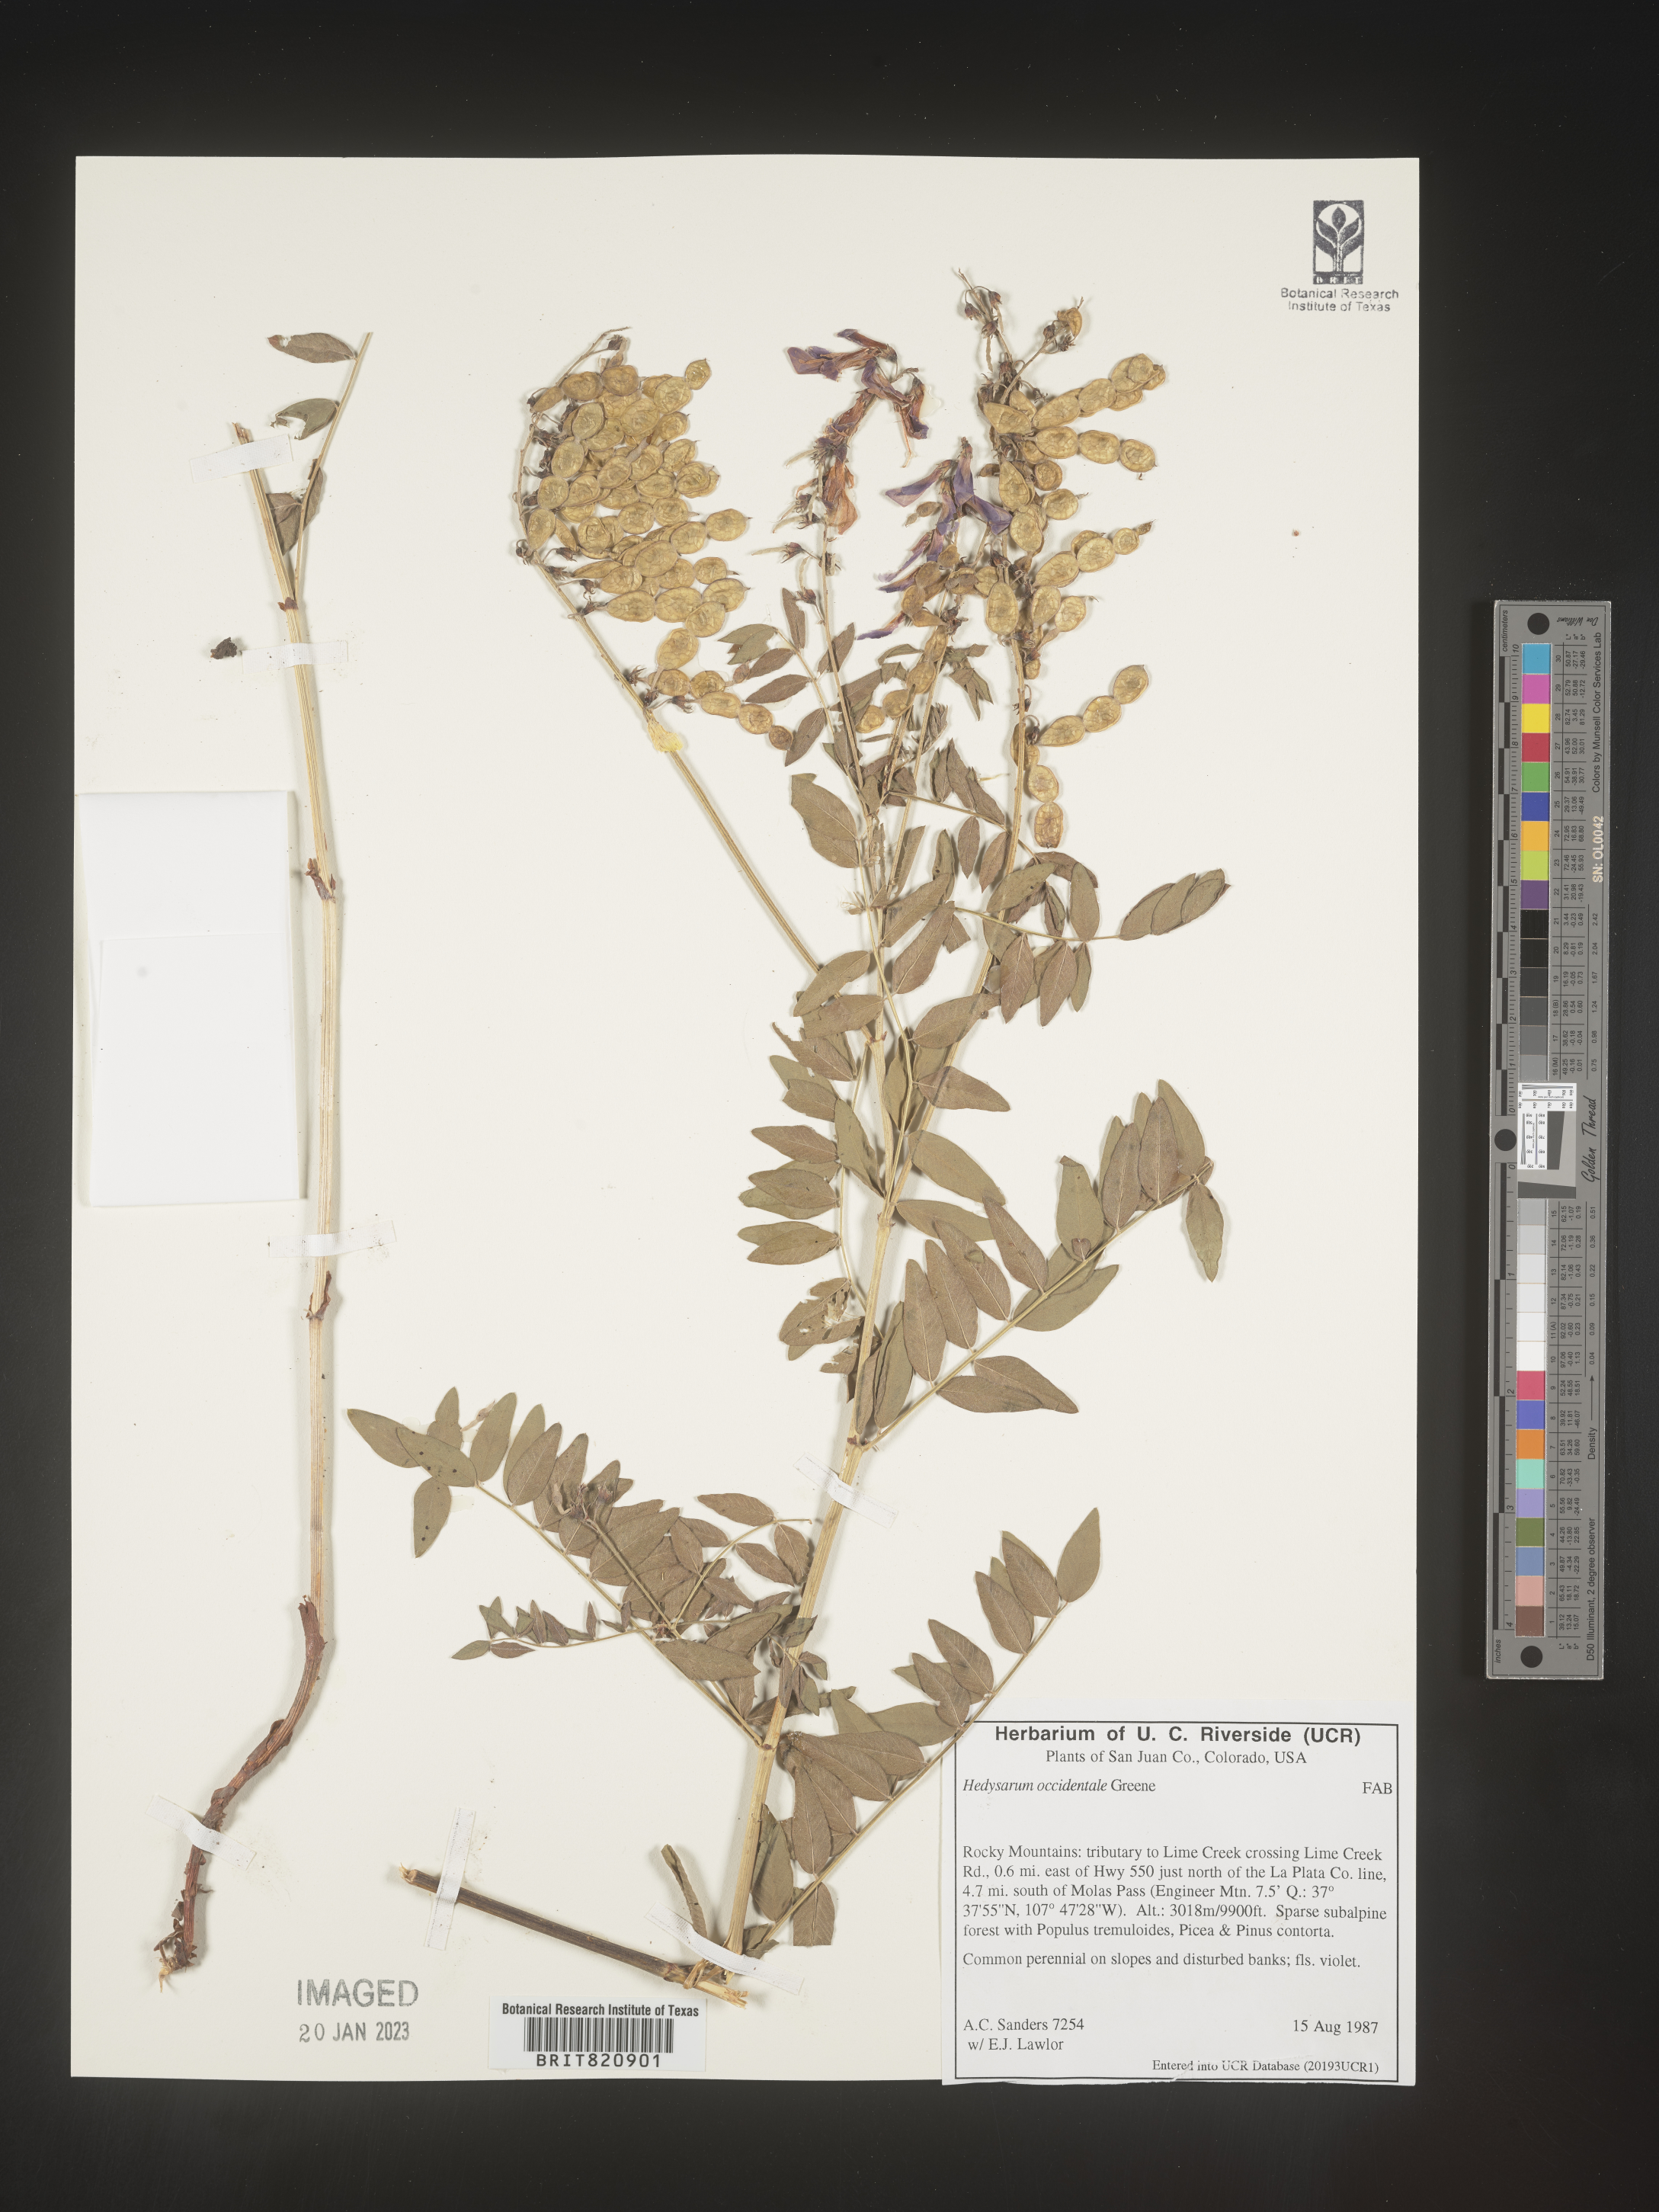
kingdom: Plantae
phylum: Tracheophyta
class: Magnoliopsida
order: Fabales
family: Fabaceae
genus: Hedysarum
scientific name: Hedysarum occidentale
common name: Western hedysarum
